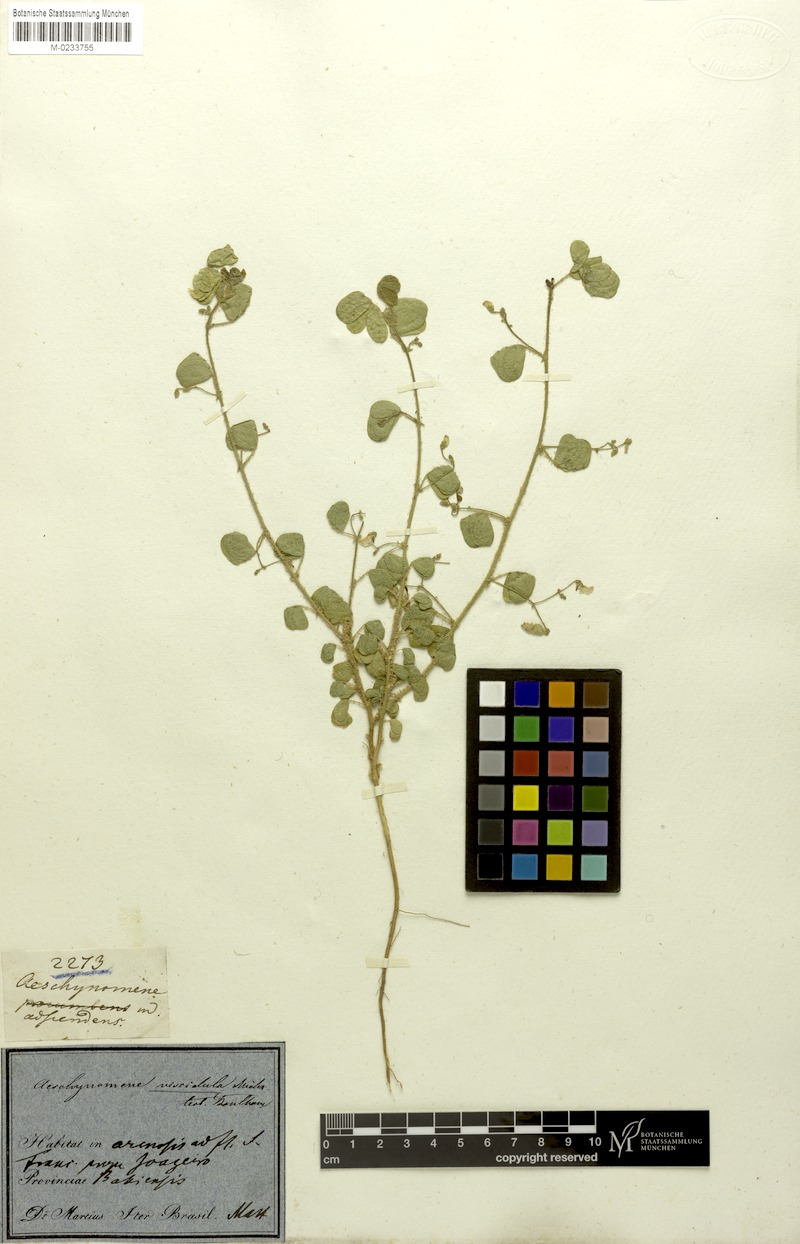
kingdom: Plantae
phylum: Tracheophyta
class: Magnoliopsida
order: Fabales
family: Fabaceae
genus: Ctenodon
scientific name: Ctenodon viscidulus
